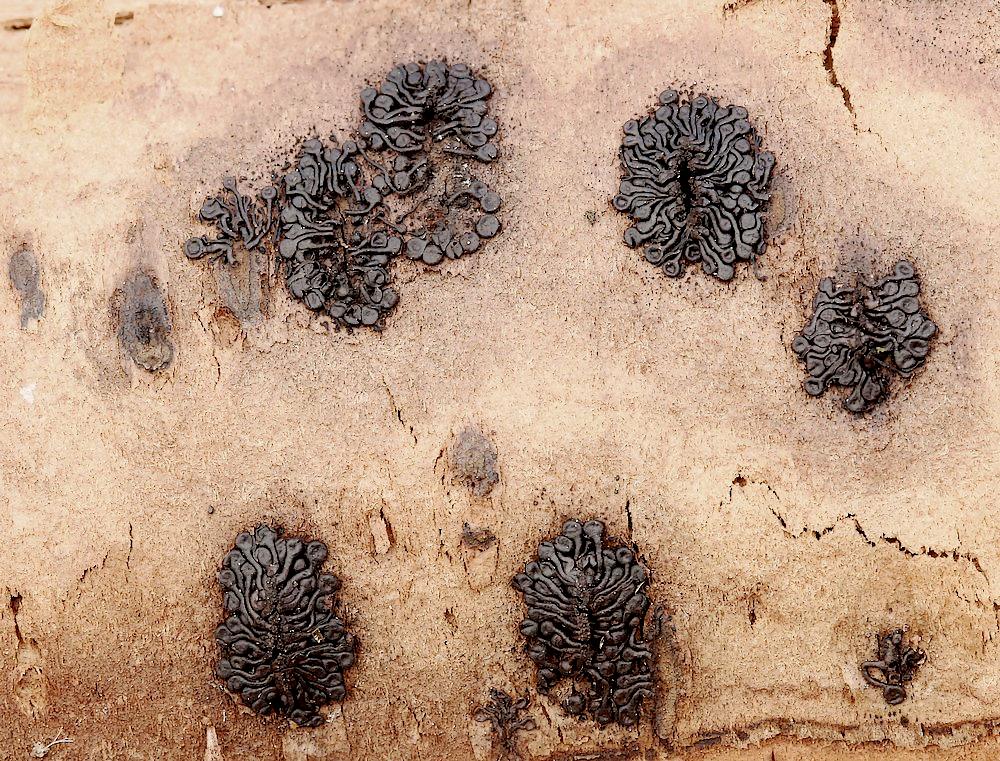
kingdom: Fungi
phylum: Ascomycota
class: Sordariomycetes
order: Calosphaeriales
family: Calosphaeriaceae
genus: Calosphaeria
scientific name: Calosphaeria pulchella
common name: smuk slyngkerne
